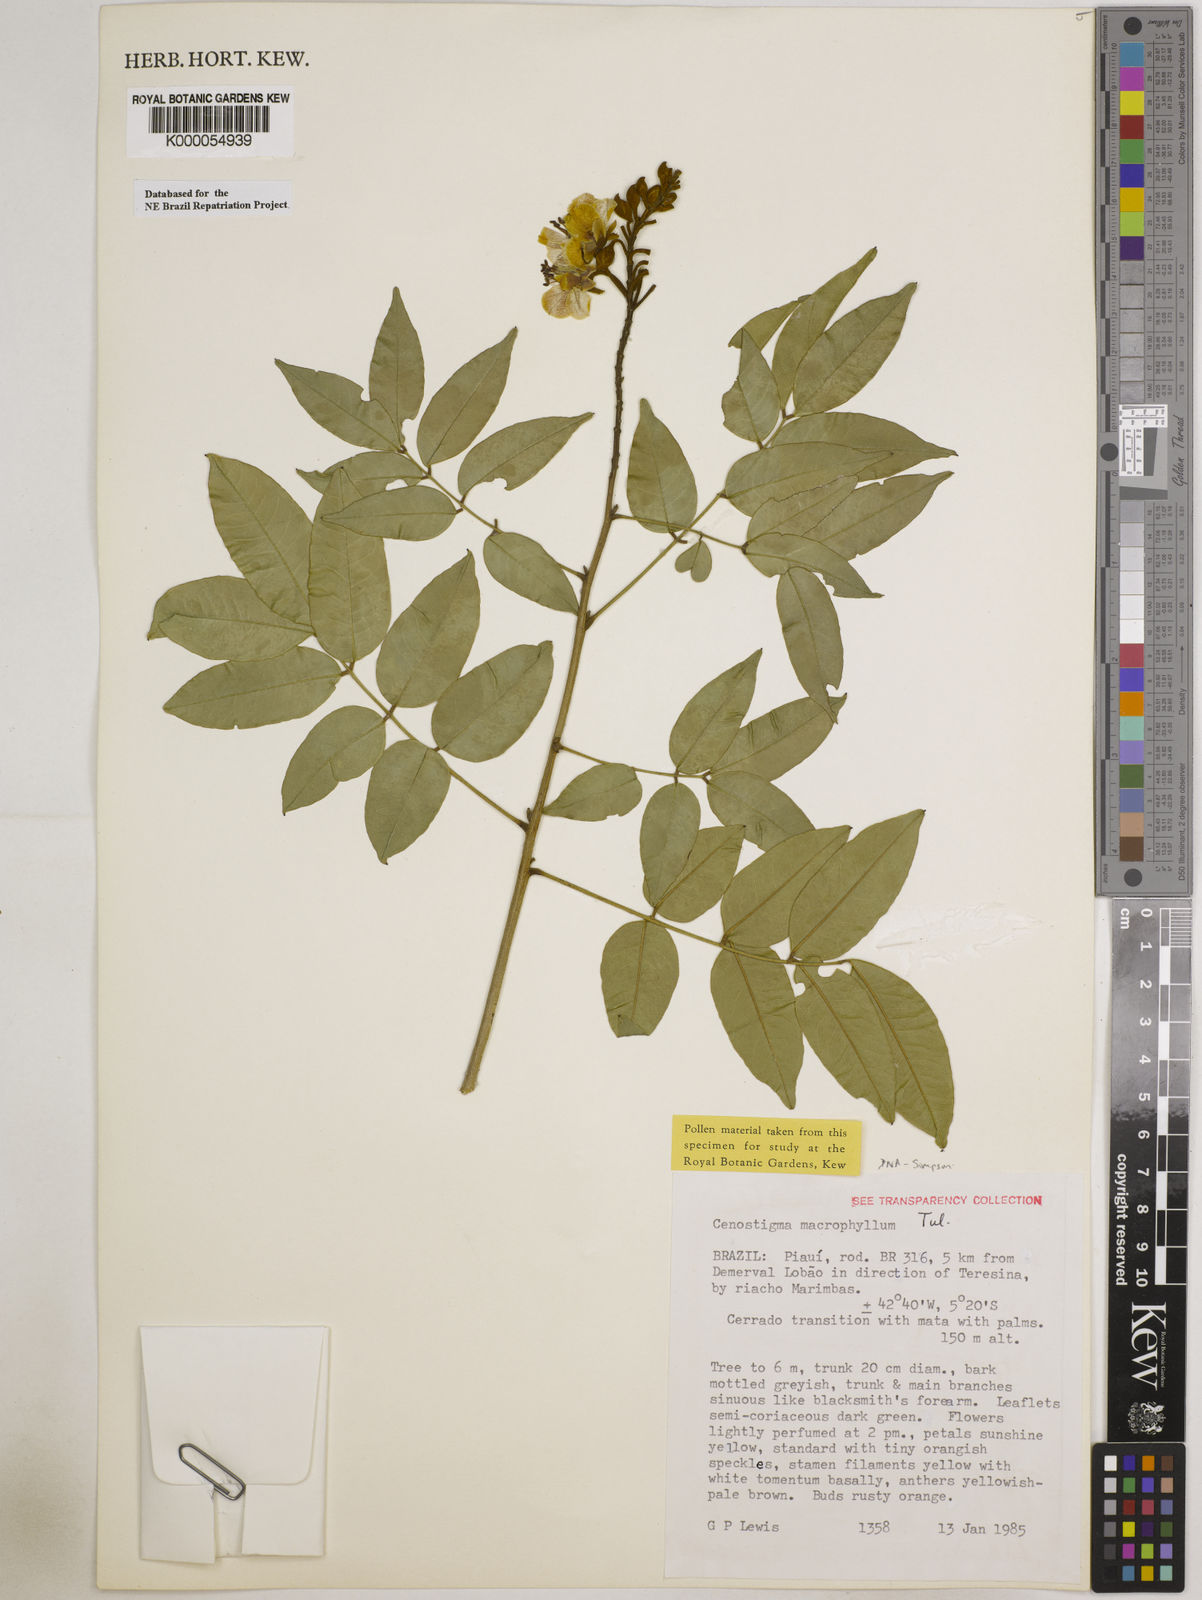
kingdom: Plantae
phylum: Tracheophyta
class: Magnoliopsida
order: Fabales
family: Fabaceae
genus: Cenostigma
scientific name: Cenostigma macrophyllum
